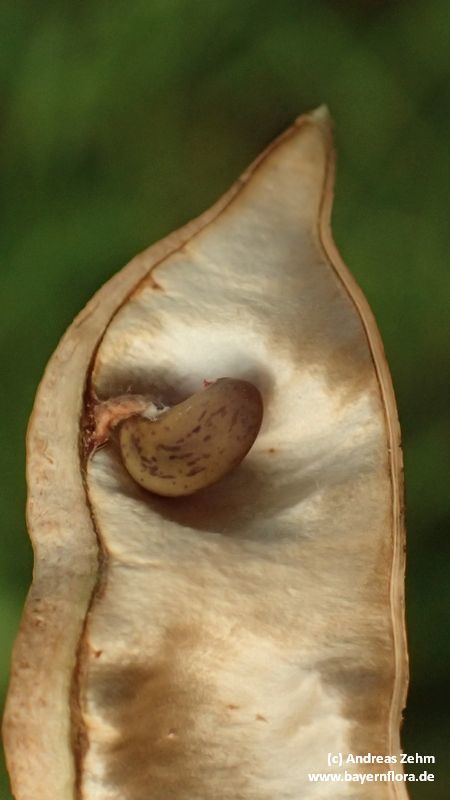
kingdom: Plantae
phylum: Tracheophyta
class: Magnoliopsida
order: Fabales
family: Fabaceae
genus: Robinia
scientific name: Robinia pseudoacacia
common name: Black locust
